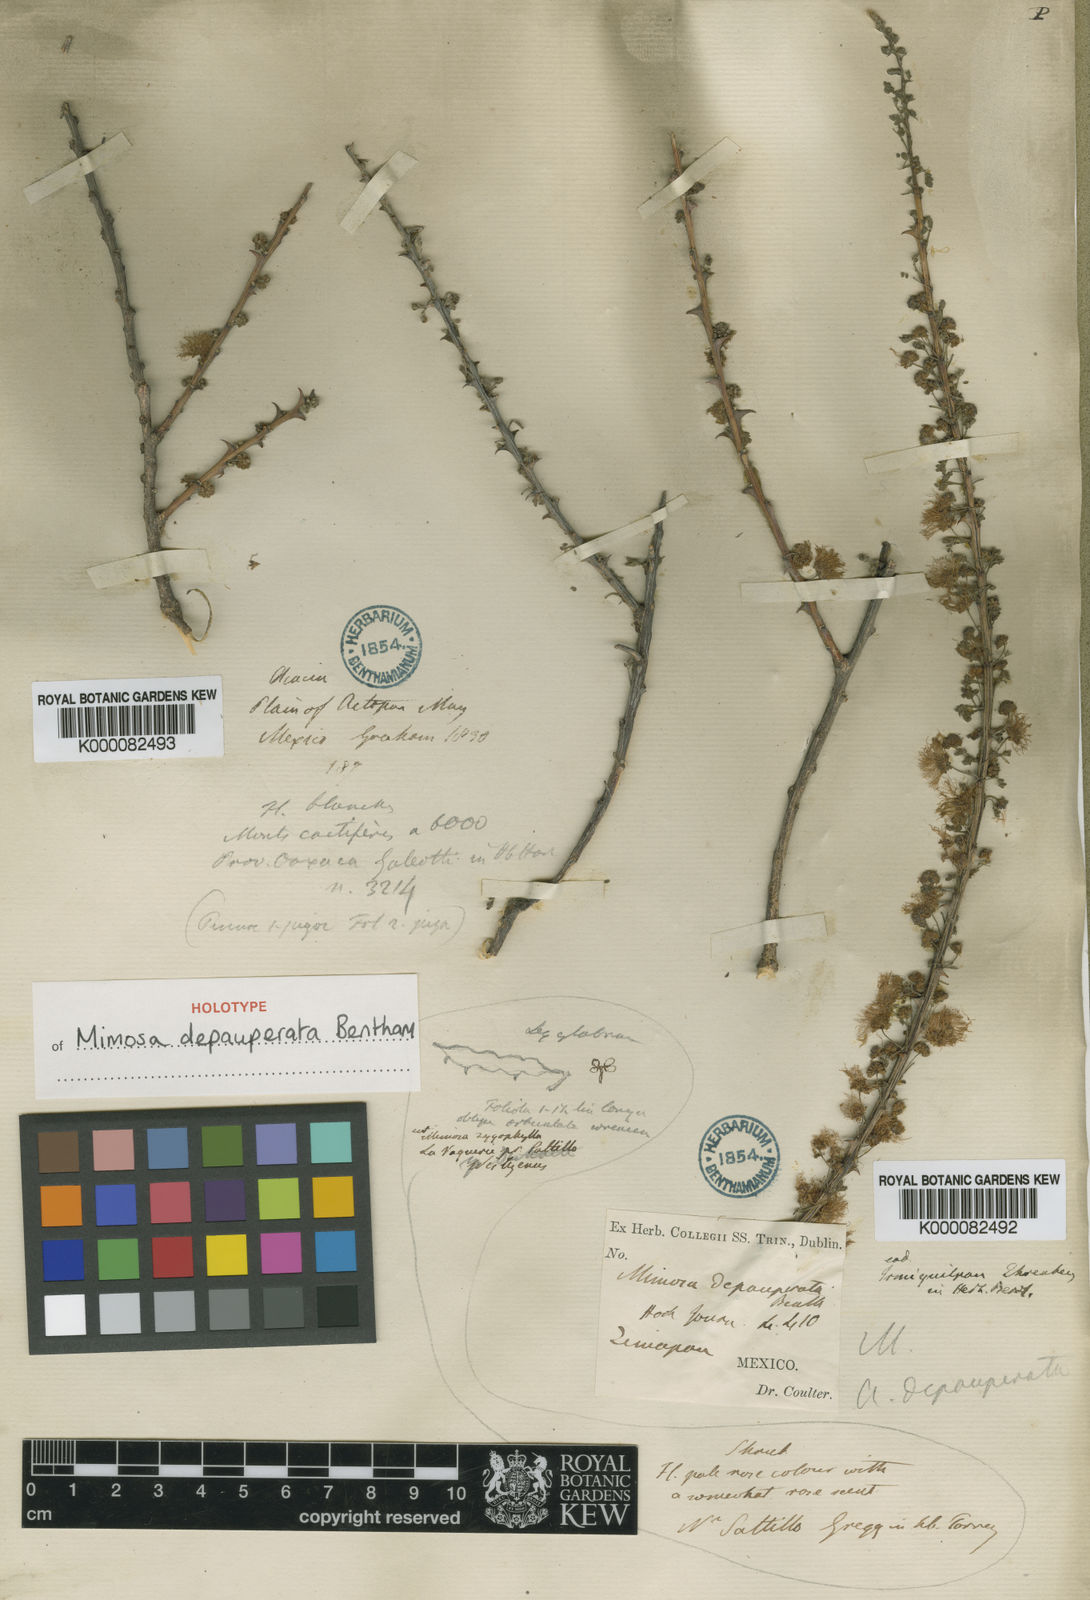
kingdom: Plantae
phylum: Tracheophyta
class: Magnoliopsida
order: Fabales
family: Fabaceae
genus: Mimosa
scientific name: Mimosa depauperata
